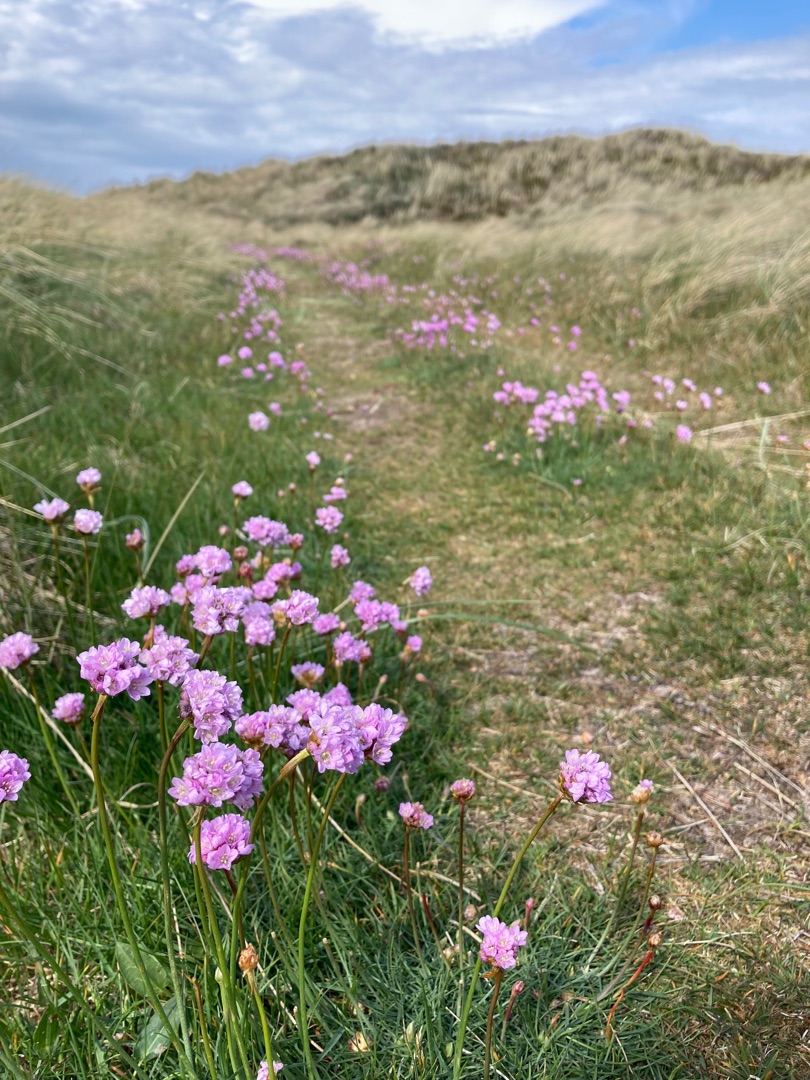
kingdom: Plantae
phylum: Tracheophyta
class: Magnoliopsida
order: Caryophyllales
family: Plumbaginaceae
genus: Armeria
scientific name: Armeria maritima
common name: Engelskgræs
